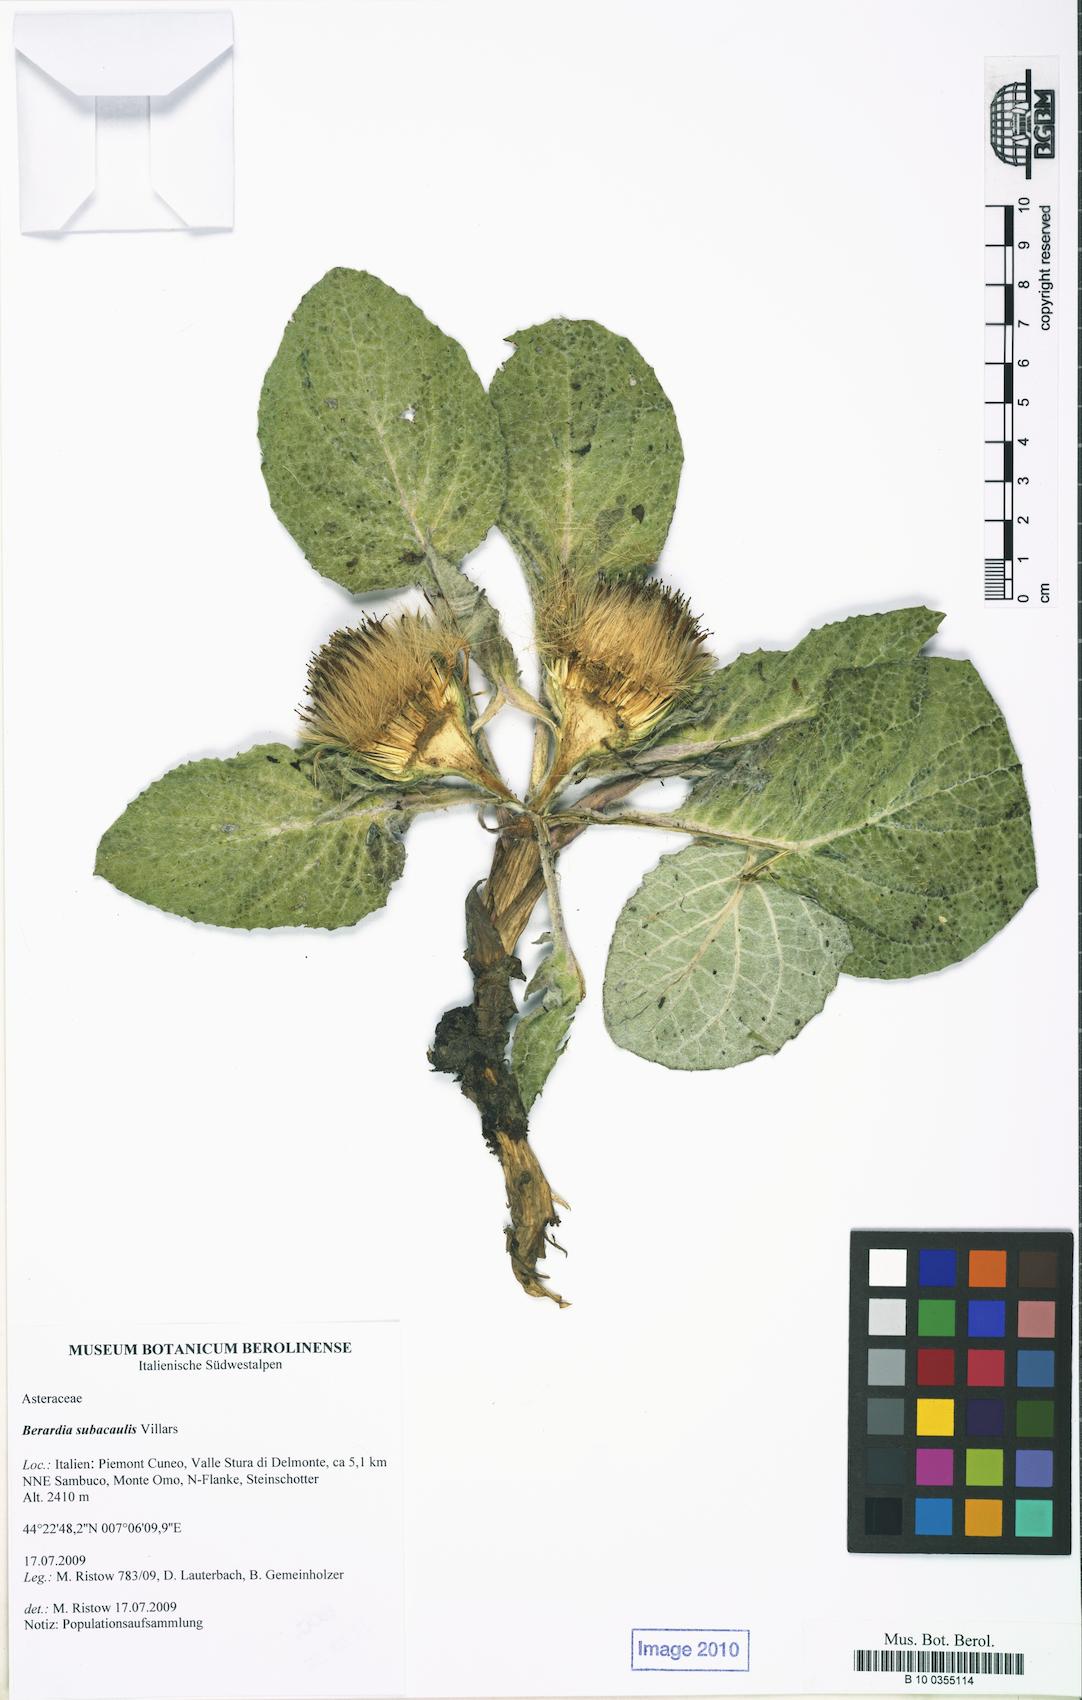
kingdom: Plantae
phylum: Tracheophyta
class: Magnoliopsida
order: Asterales
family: Asteraceae
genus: Berardia
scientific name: Berardia lanuginosa
